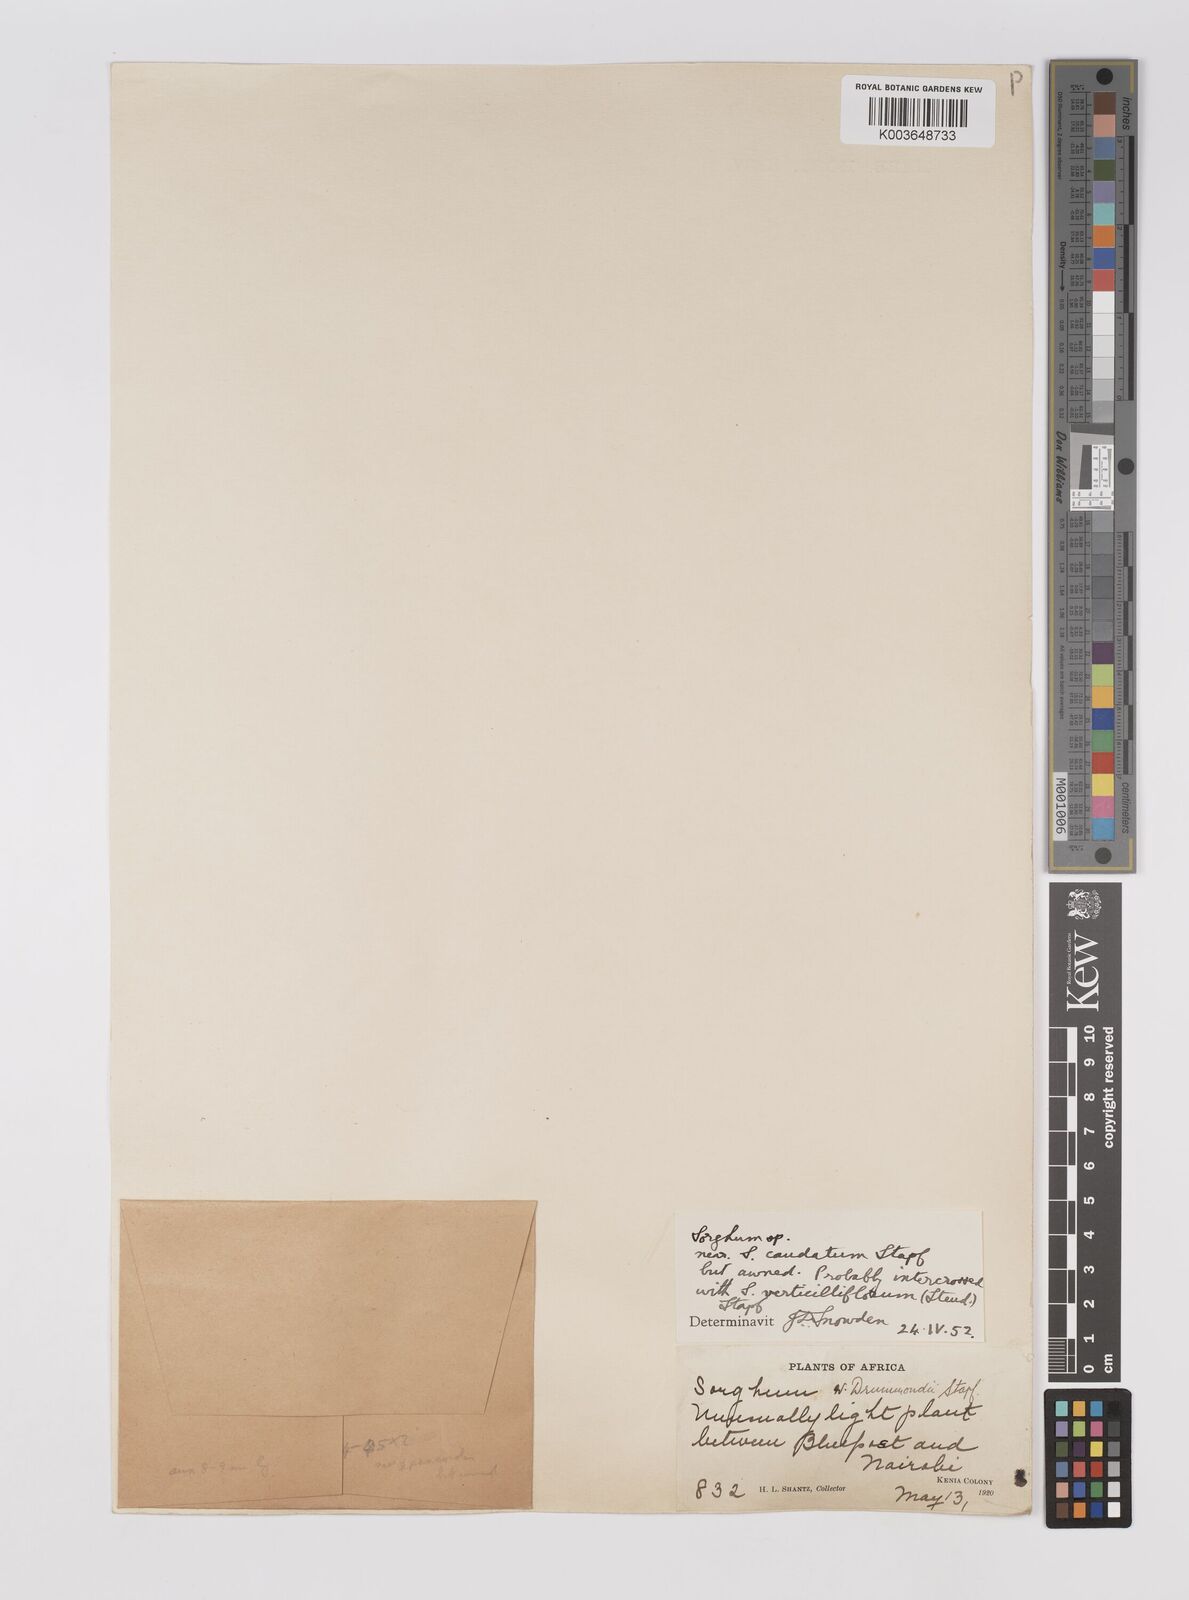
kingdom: Plantae
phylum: Tracheophyta
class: Liliopsida
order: Poales
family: Poaceae
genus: Sorghum
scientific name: Sorghum drummondii
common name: Sudangrass
